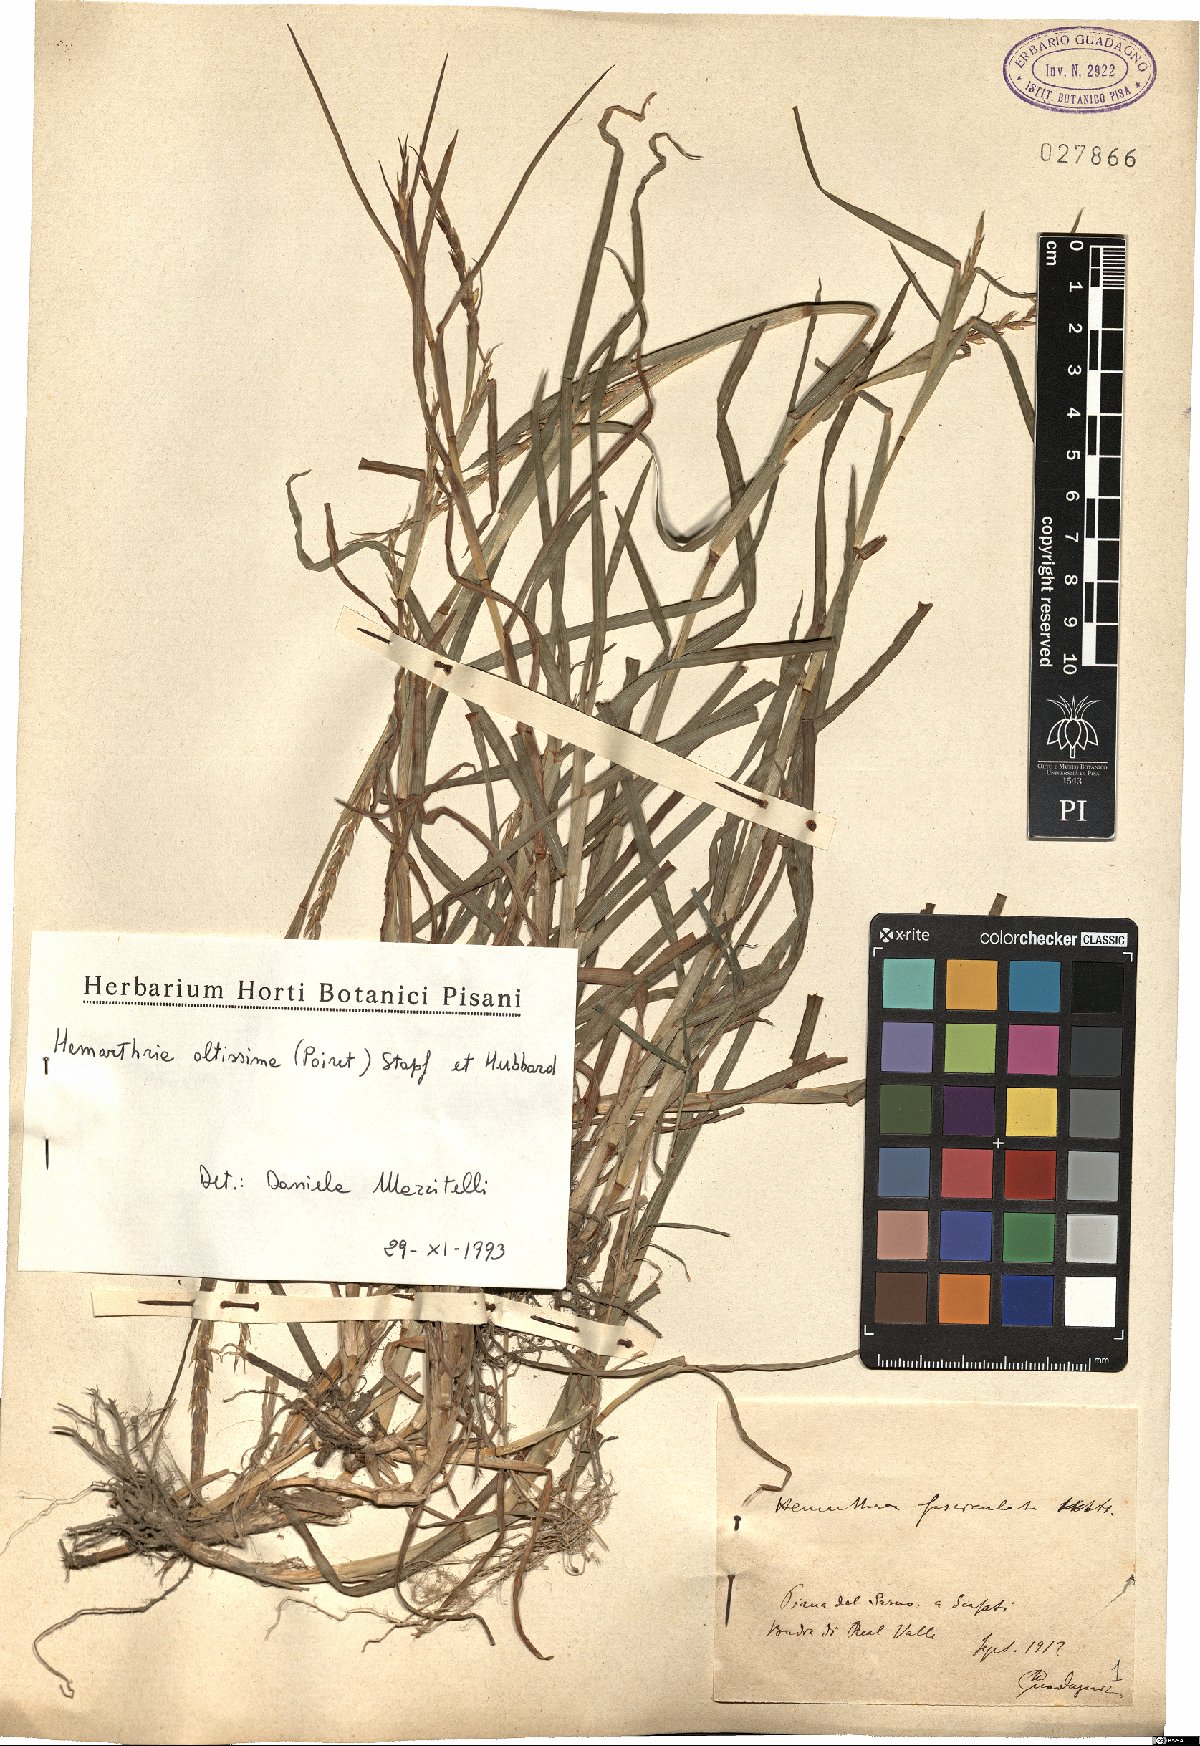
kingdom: Plantae
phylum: Tracheophyta
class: Liliopsida
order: Poales
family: Poaceae
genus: Hemarthria
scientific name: Hemarthria altissima
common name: African jointgrass
